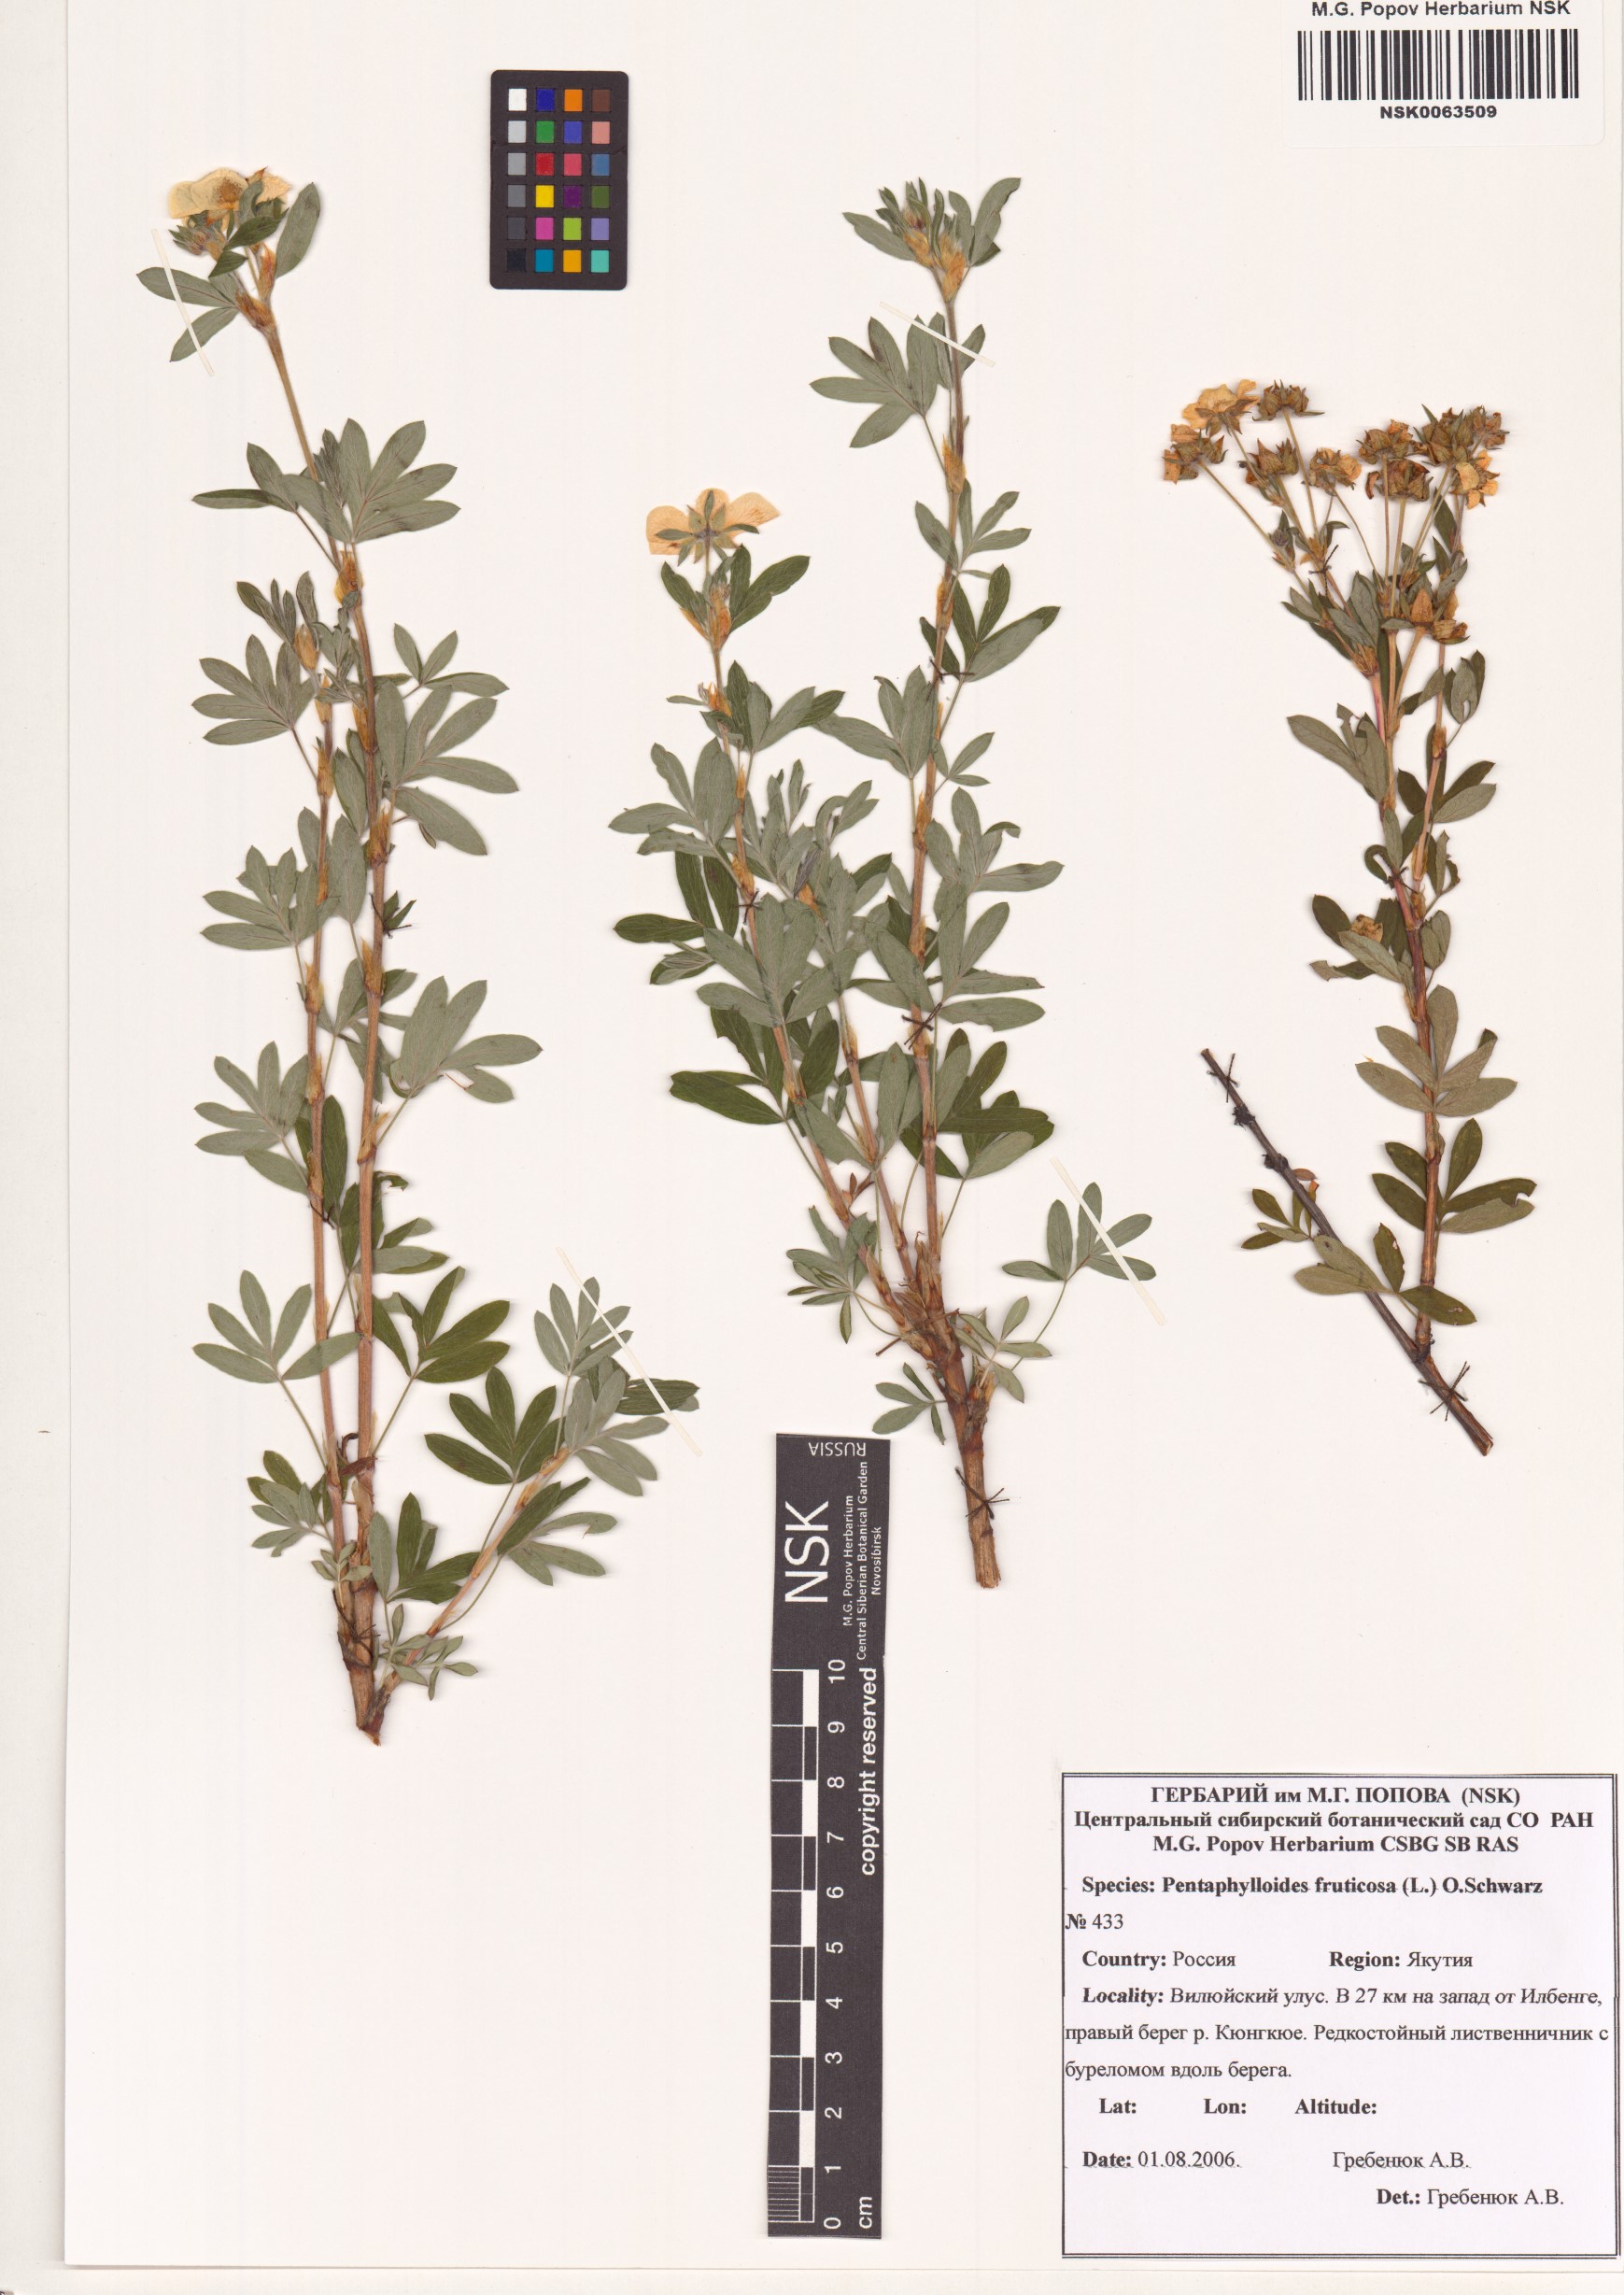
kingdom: Plantae
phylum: Tracheophyta
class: Magnoliopsida
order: Rosales
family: Rosaceae
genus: Dasiphora
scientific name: Dasiphora fruticosa
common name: Shrubby cinquefoil
